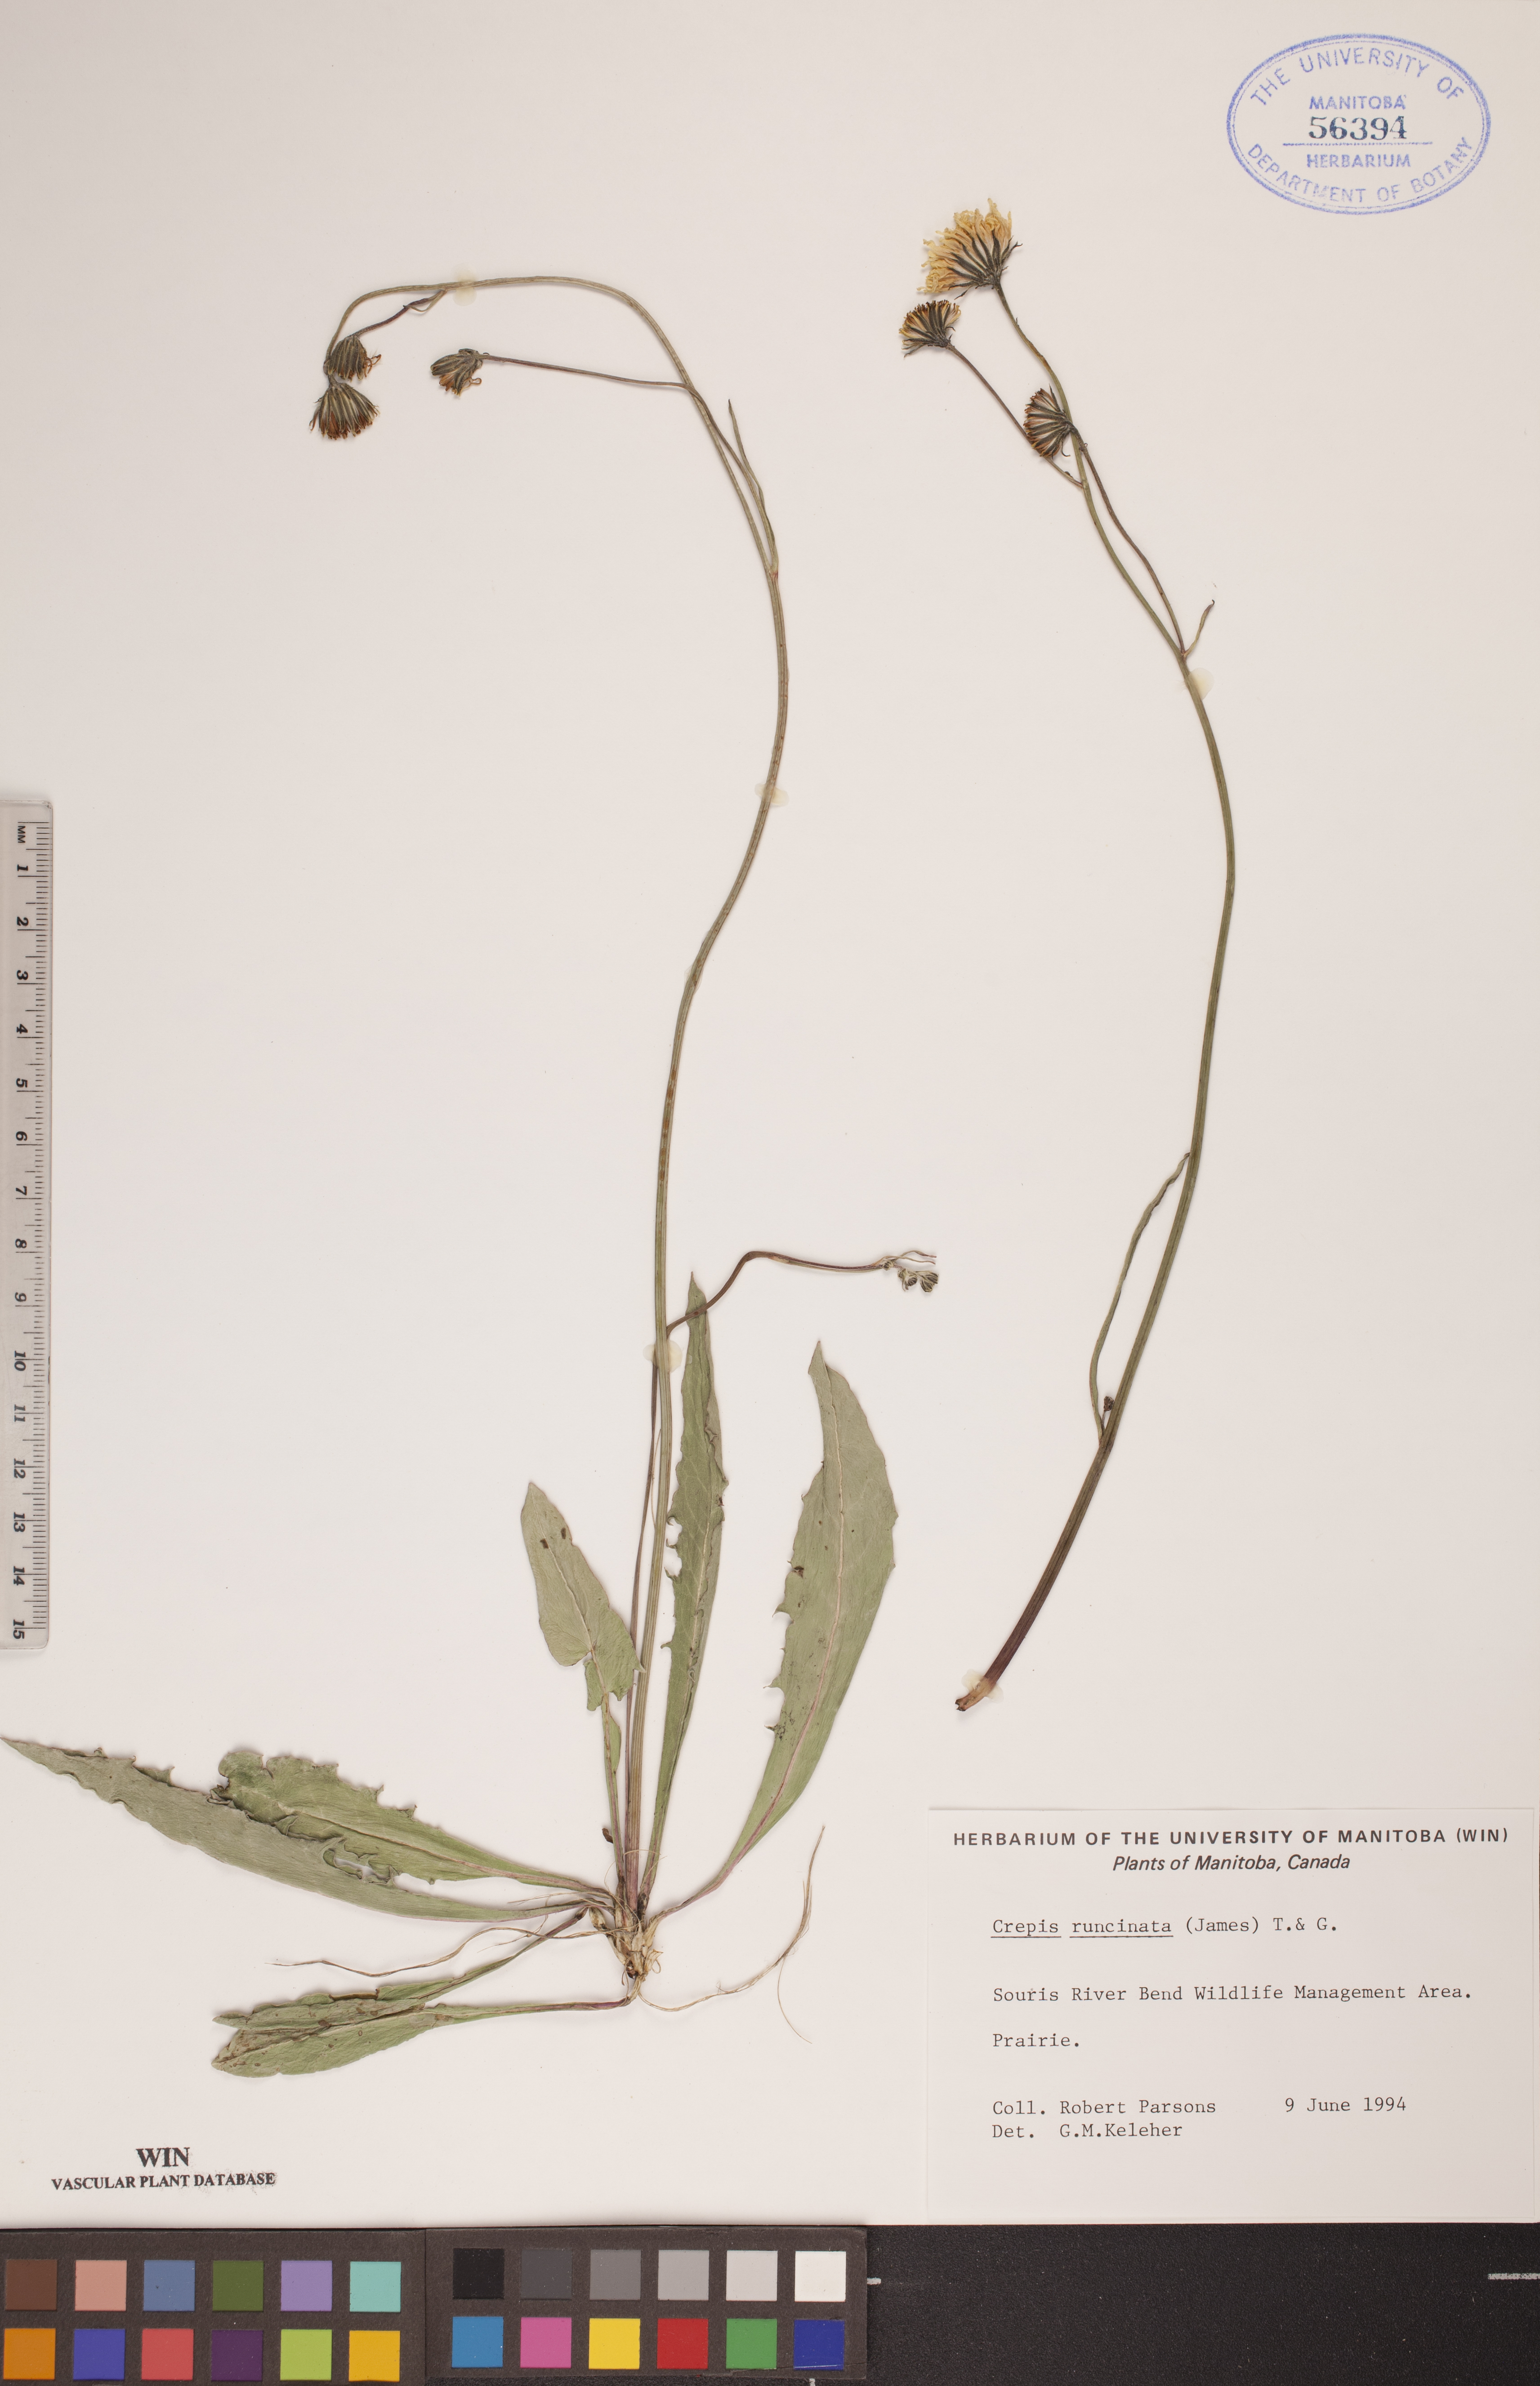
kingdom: Plantae
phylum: Tracheophyta
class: Magnoliopsida
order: Asterales
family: Asteraceae
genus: Crepis
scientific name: Crepis runcinata
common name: Dandelion hawksbeard
